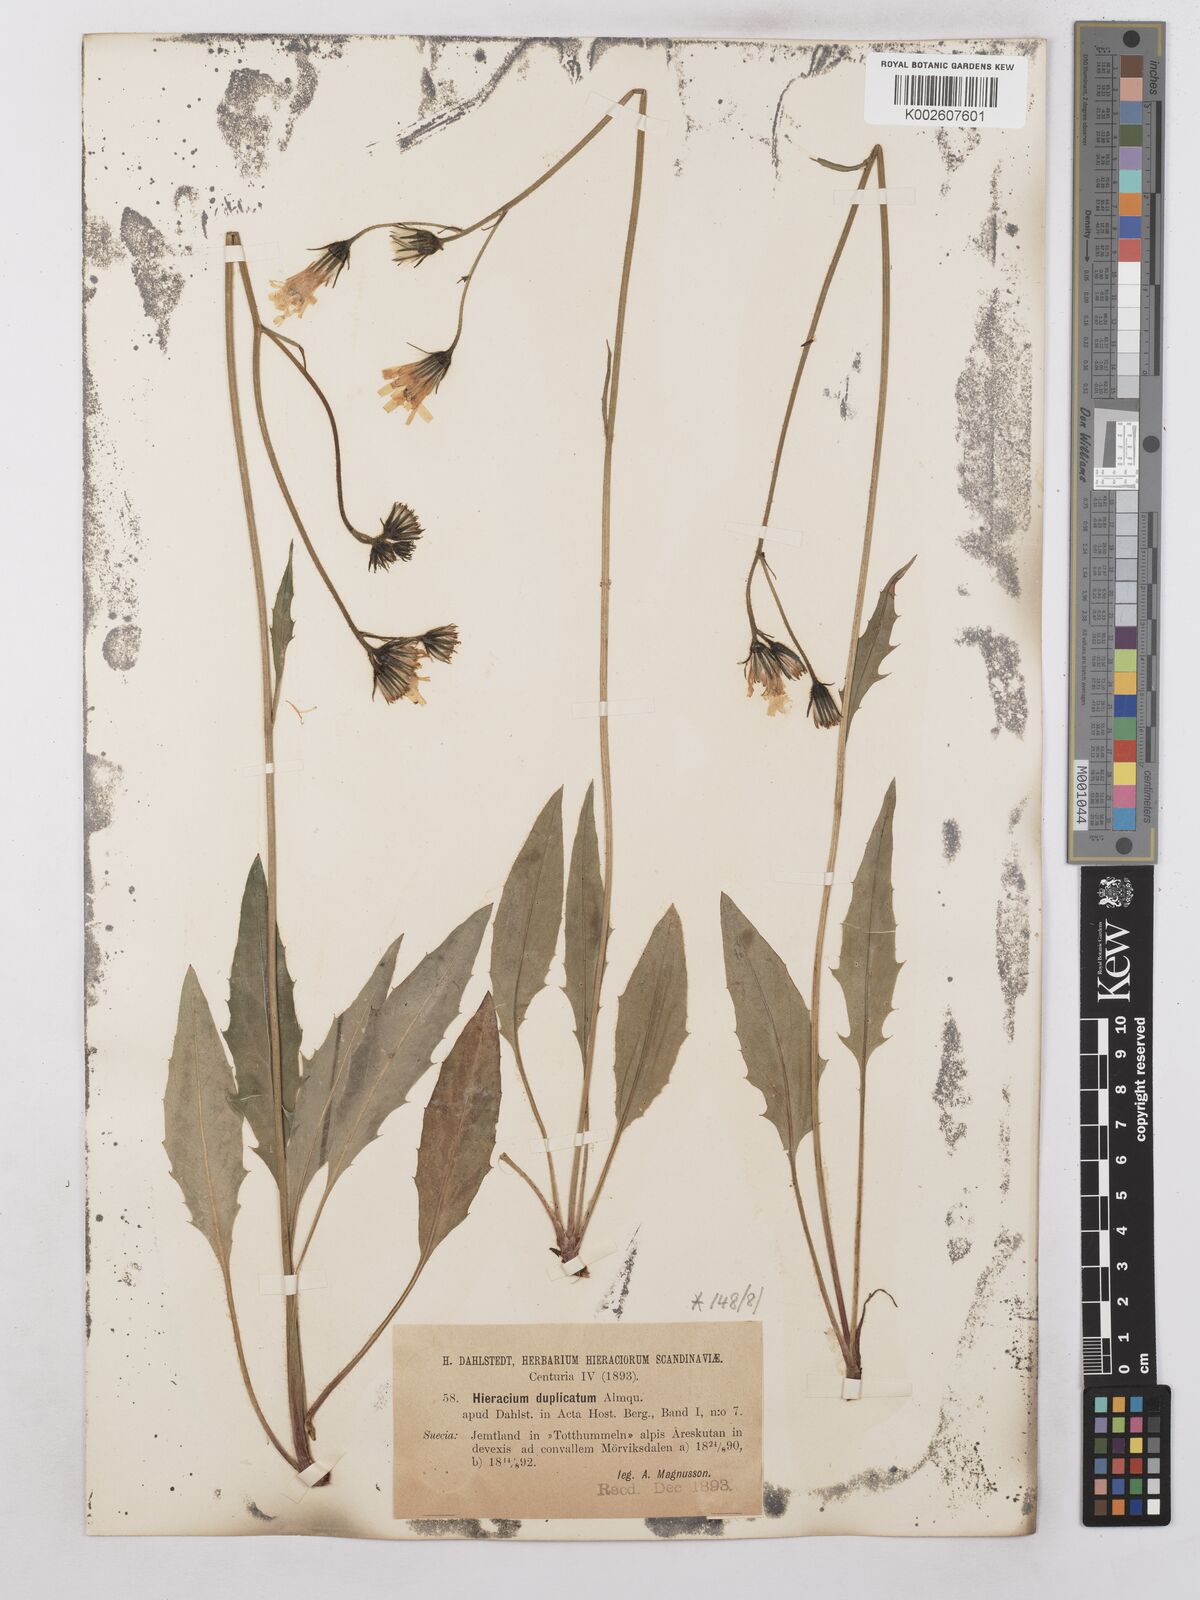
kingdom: Plantae
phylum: Tracheophyta
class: Magnoliopsida
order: Asterales
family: Asteraceae
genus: Hieracium
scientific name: Hieracium subramosum
